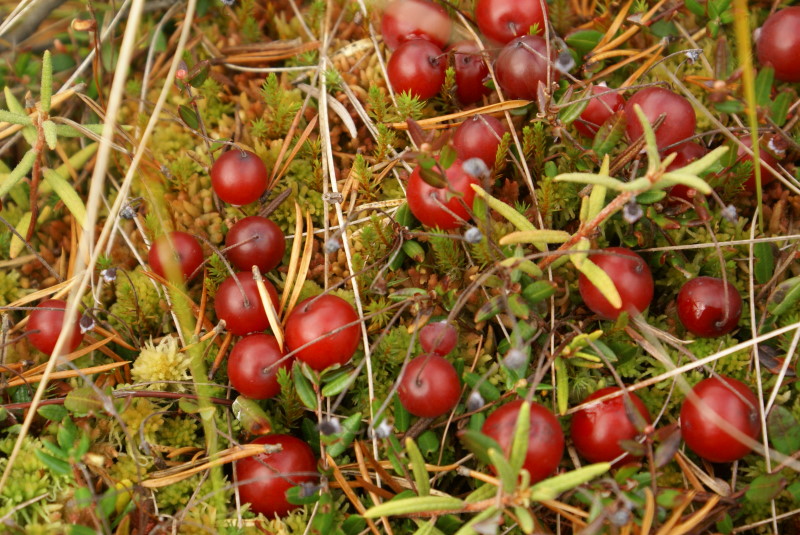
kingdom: Plantae
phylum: Tracheophyta
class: Magnoliopsida
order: Ericales
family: Ericaceae
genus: Vaccinium
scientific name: Vaccinium oxycoccos
